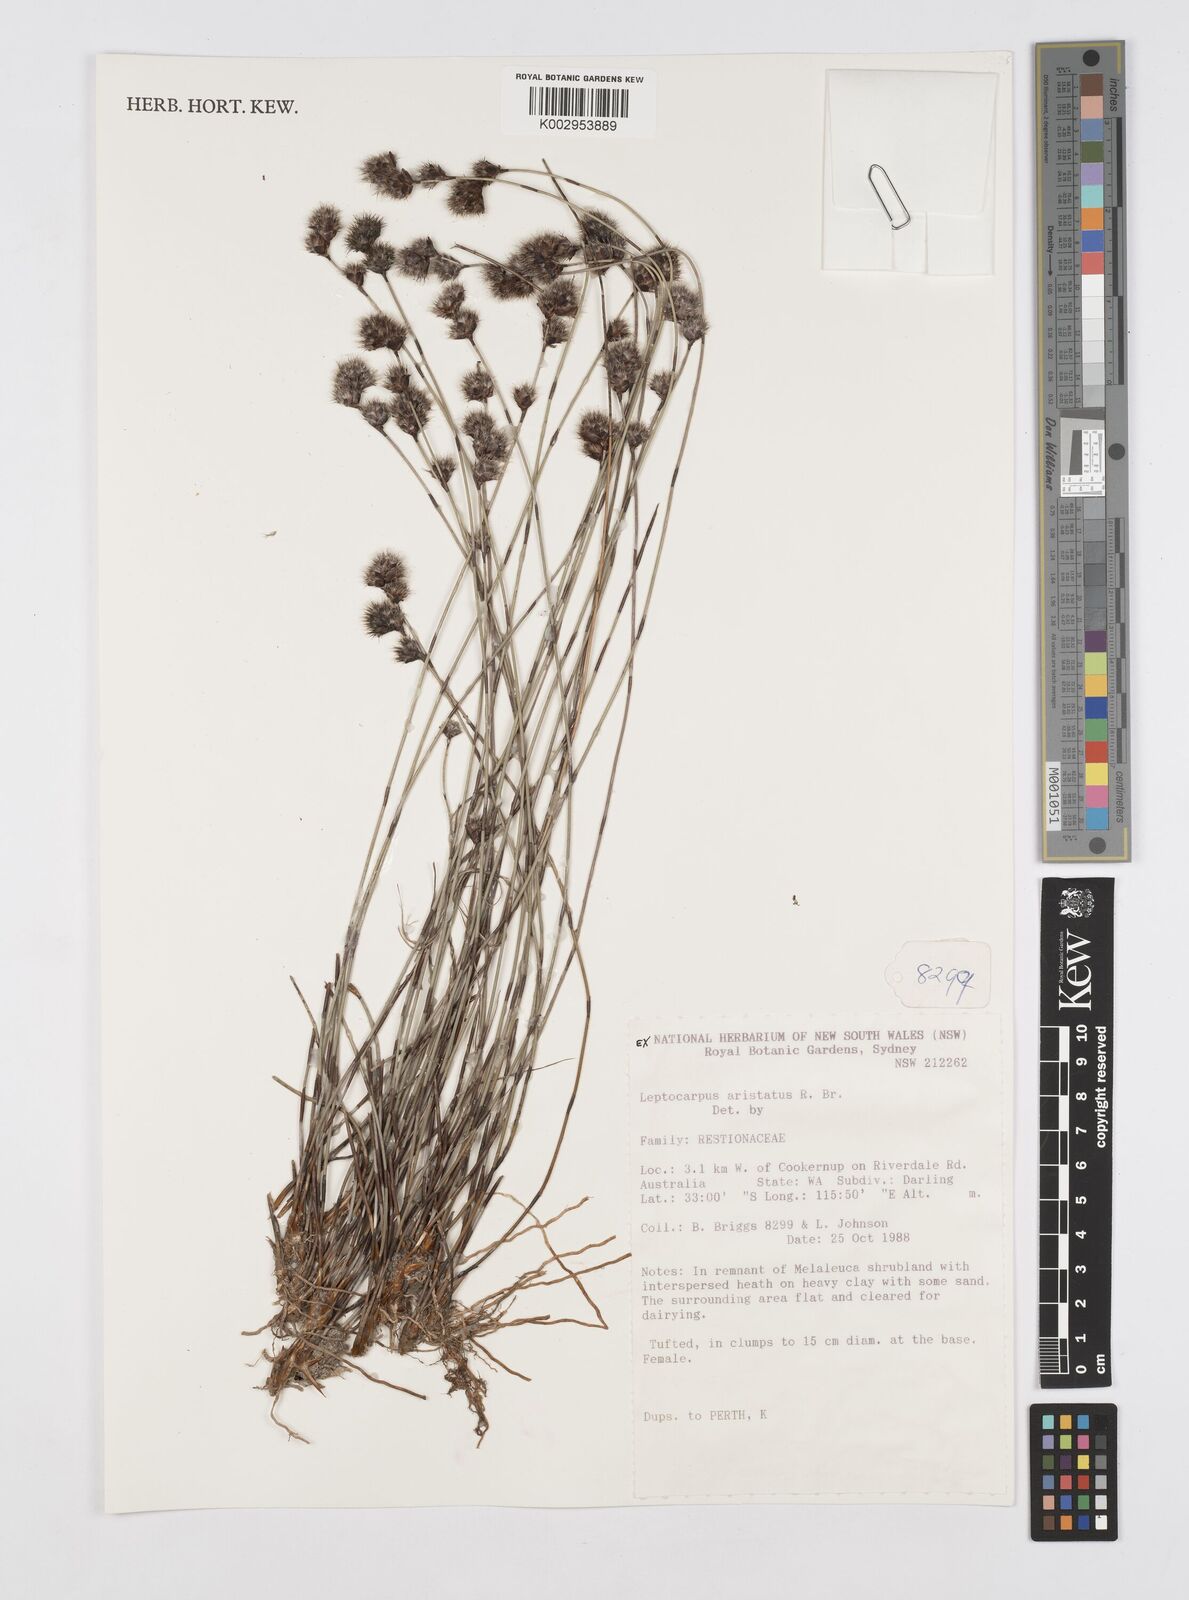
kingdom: Plantae
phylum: Tracheophyta
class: Liliopsida
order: Poales
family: Restionaceae
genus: Chaetanthus
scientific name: Chaetanthus aristatus
